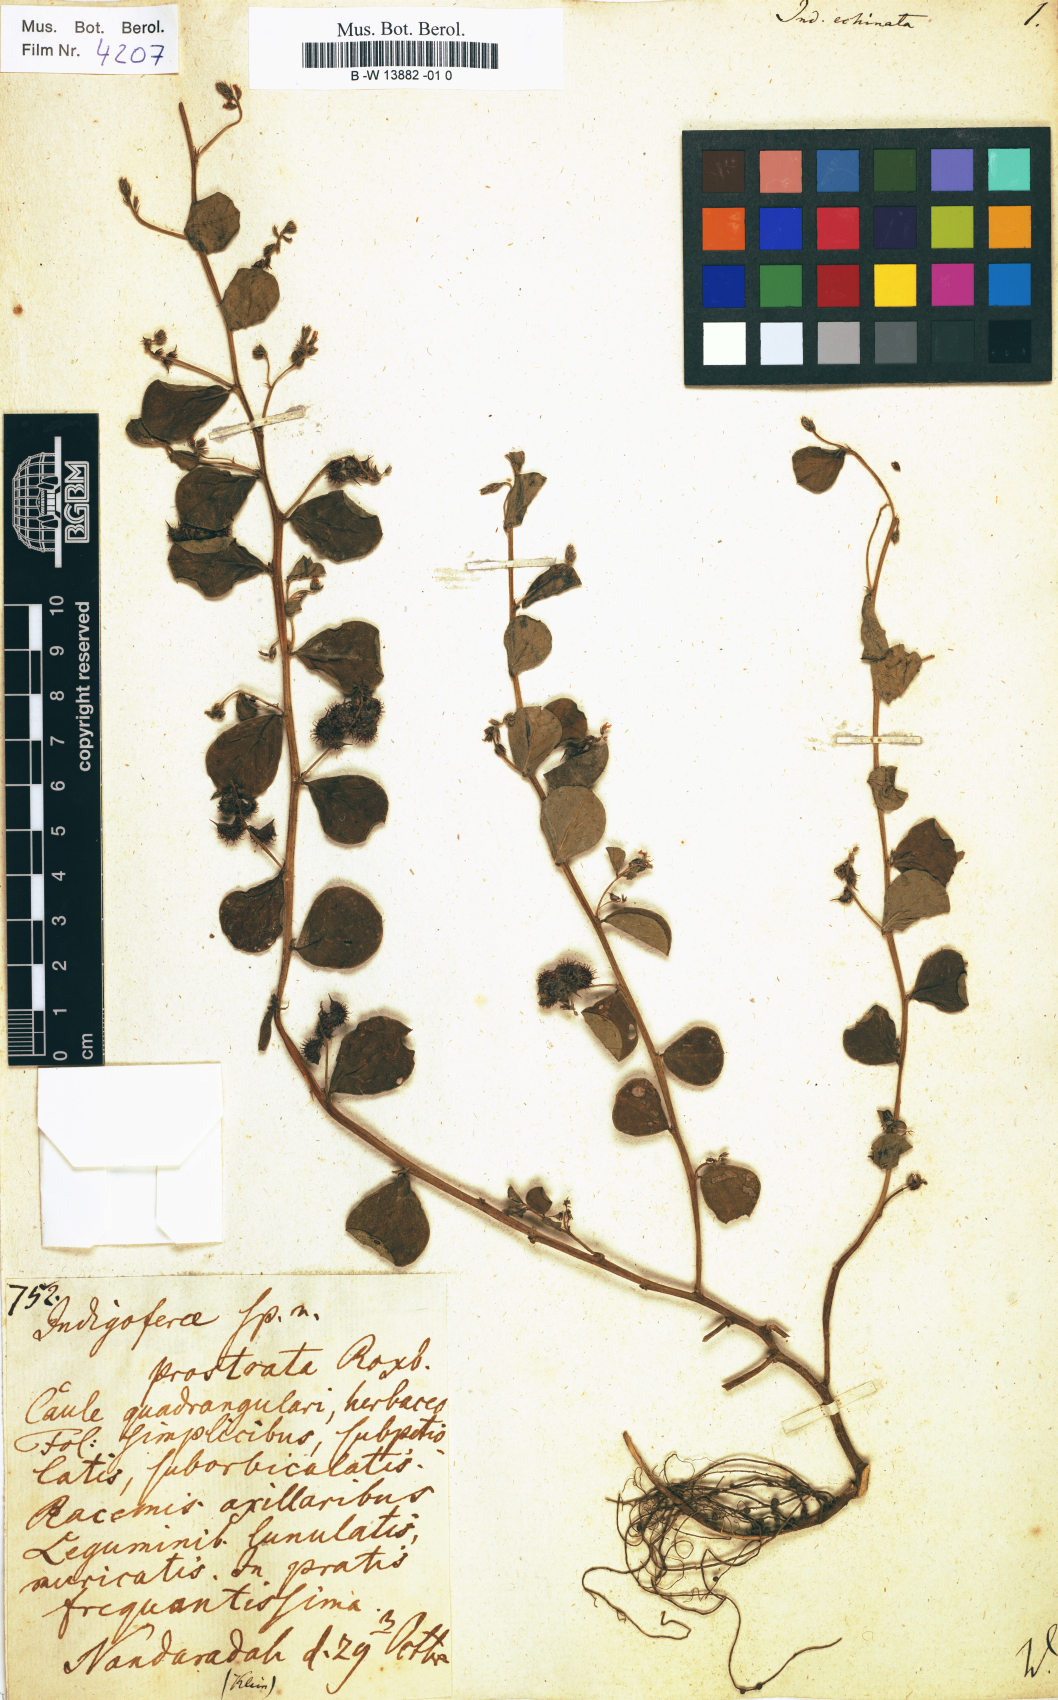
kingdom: Plantae
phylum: Tracheophyta
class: Magnoliopsida
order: Fabales
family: Fabaceae
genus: Indigofera
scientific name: Indigofera nummulariifolia
